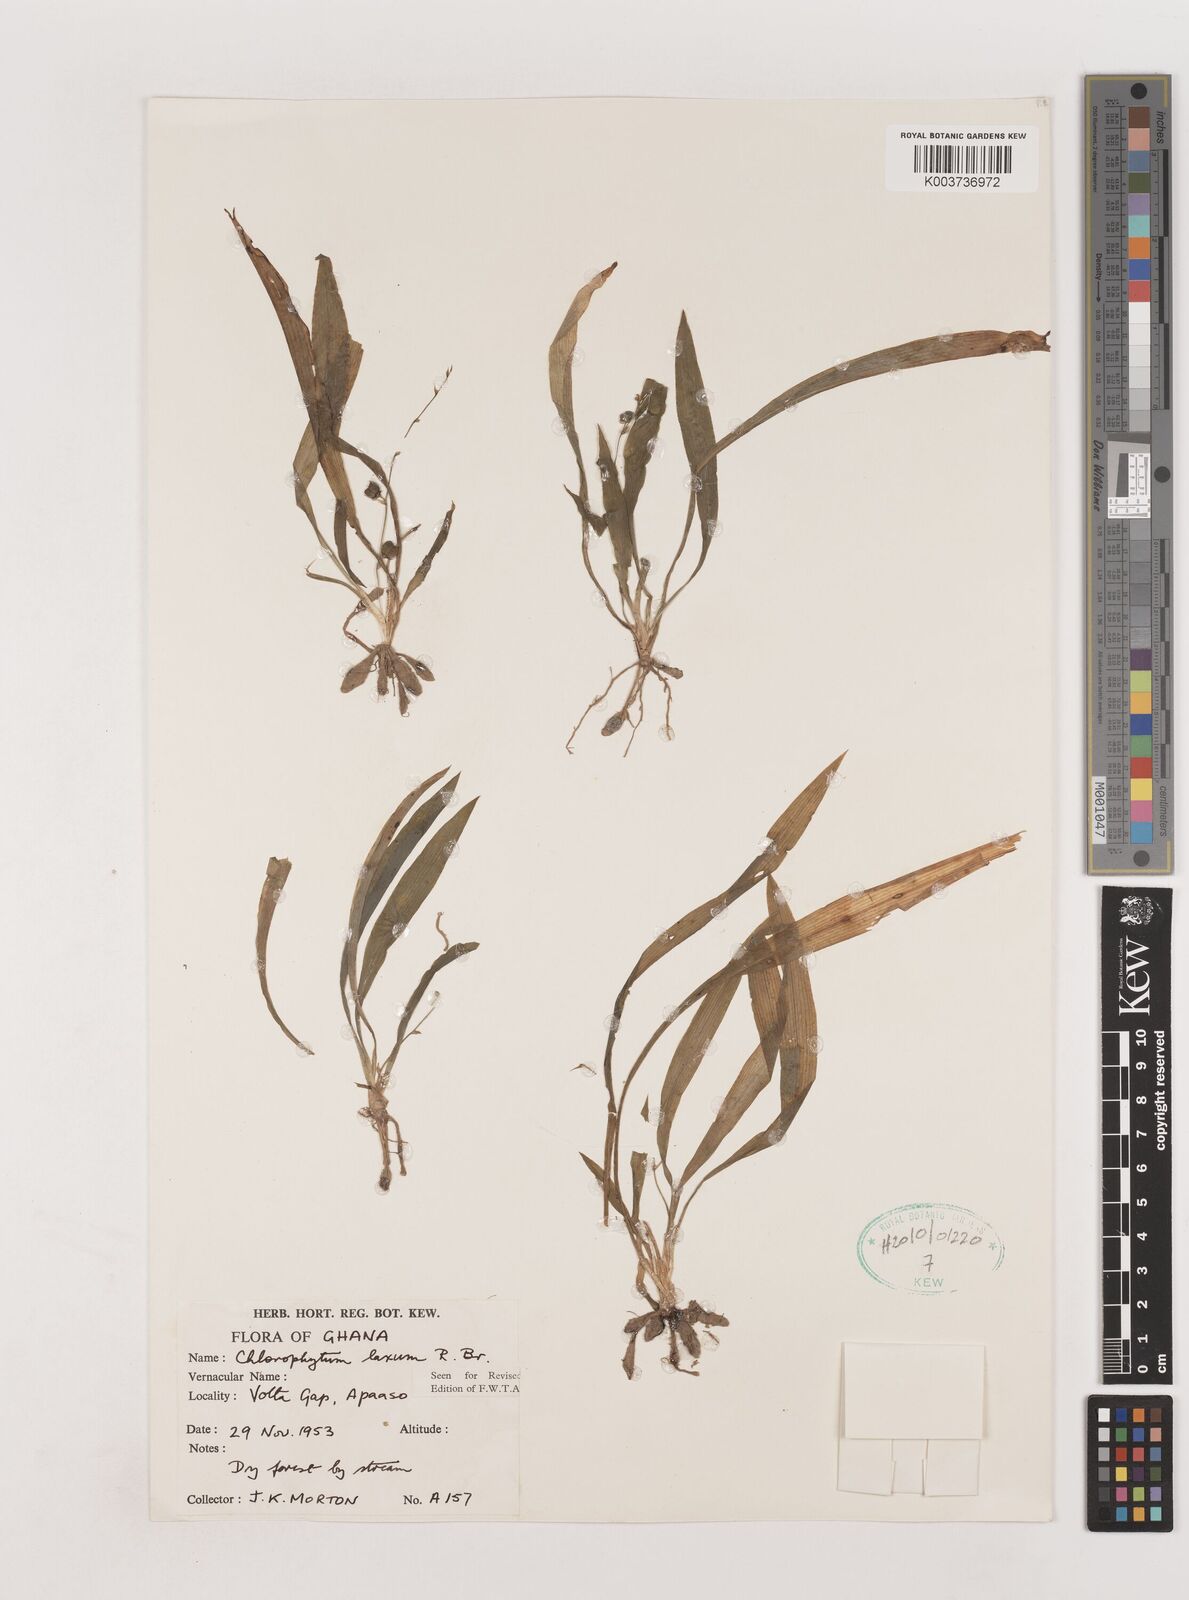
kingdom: Plantae
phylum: Tracheophyta
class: Liliopsida
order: Asparagales
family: Asparagaceae
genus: Chlorophytum
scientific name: Chlorophytum laxum
